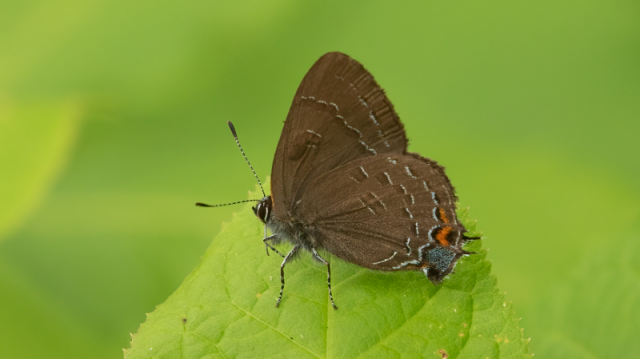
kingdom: Animalia
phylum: Arthropoda
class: Insecta
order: Lepidoptera
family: Lycaenidae
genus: Satyrium
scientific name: Satyrium calanus
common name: Banded Hairstreak
